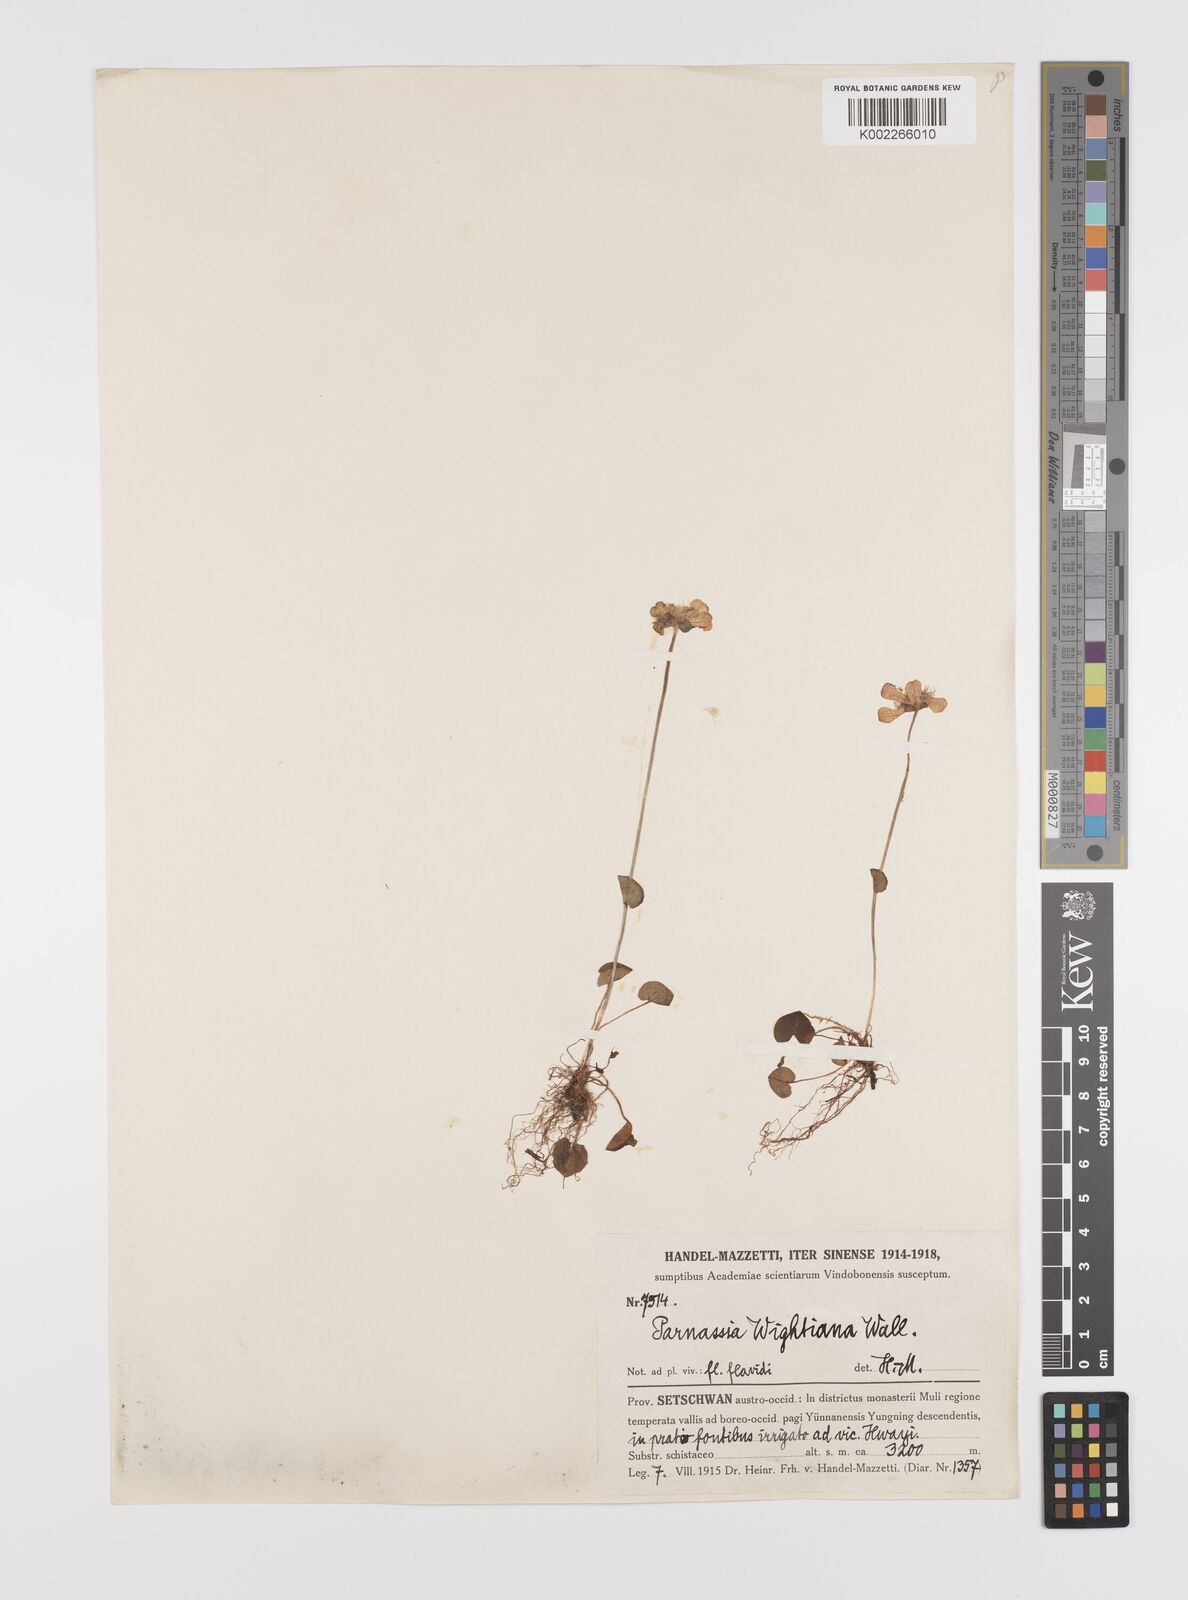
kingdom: Plantae
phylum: Tracheophyta
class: Magnoliopsida
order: Celastrales
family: Parnassiaceae
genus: Parnassia
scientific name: Parnassia wightiana
